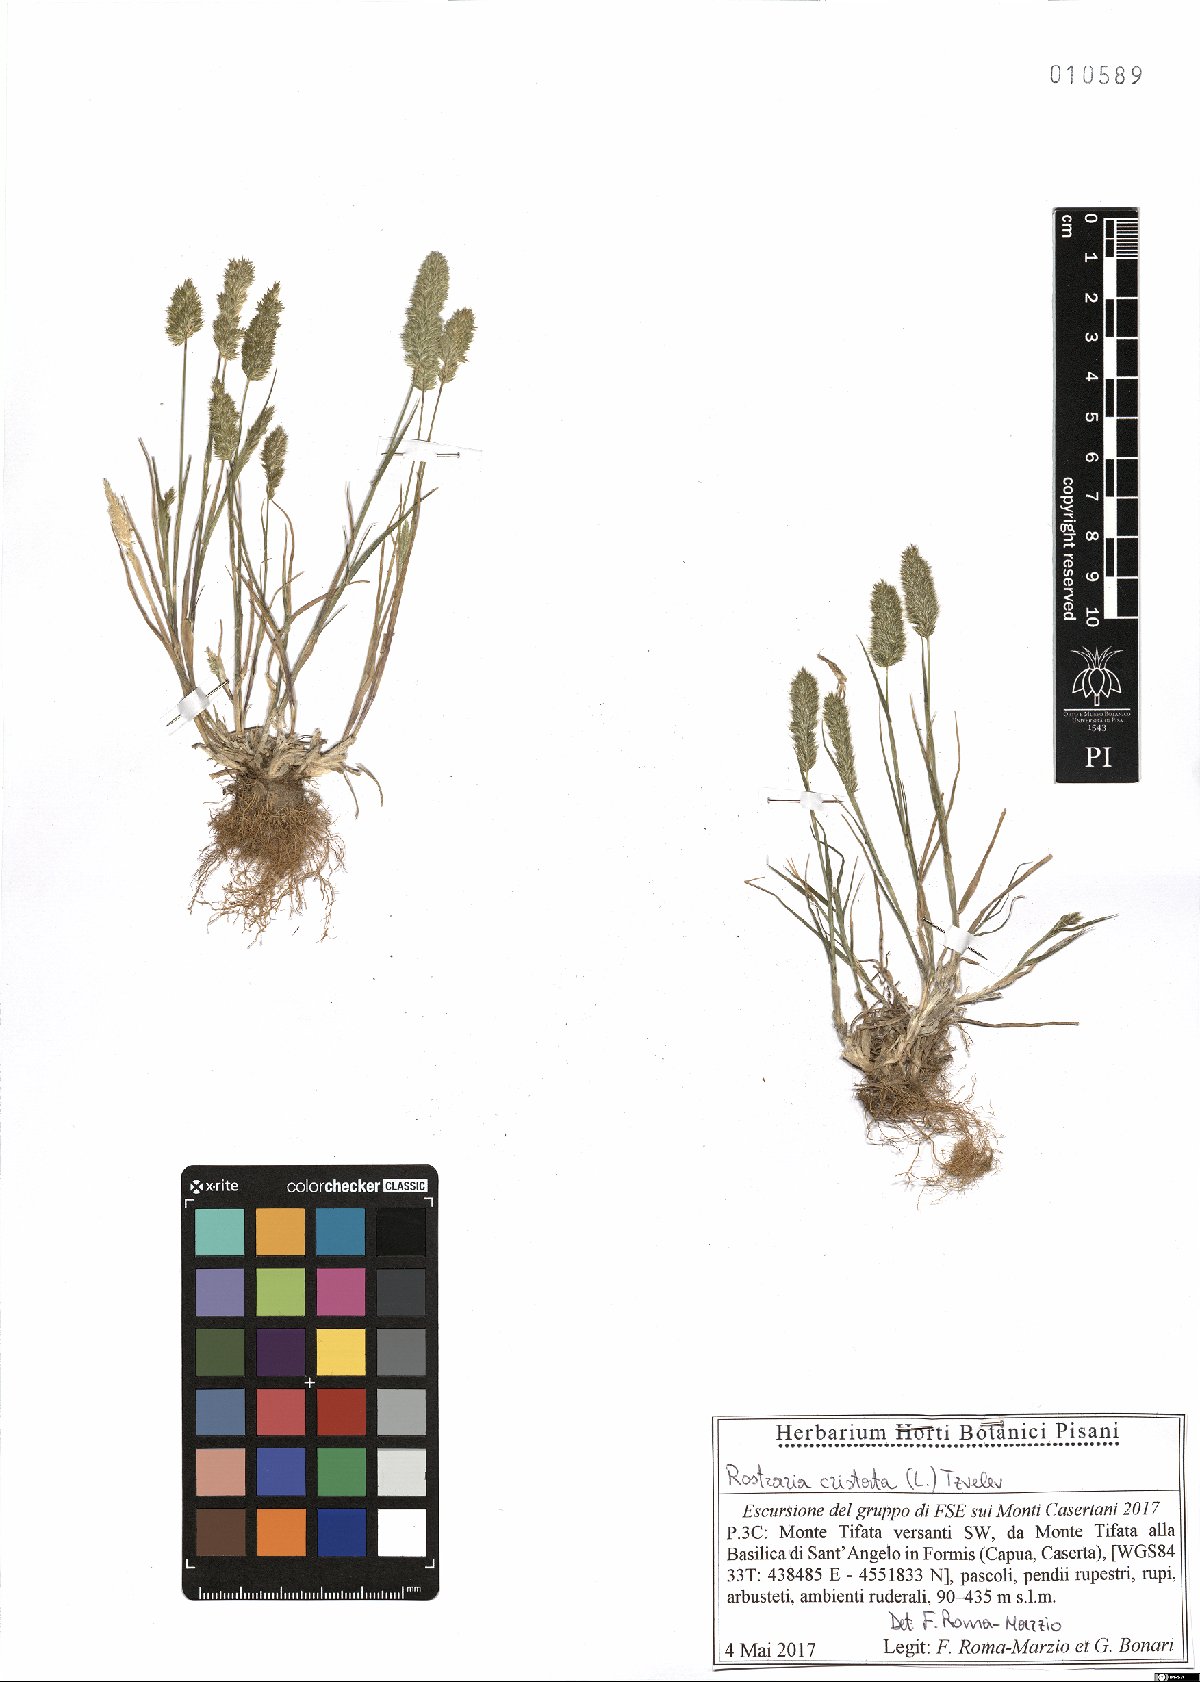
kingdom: Plantae
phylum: Tracheophyta
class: Liliopsida
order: Poales
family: Poaceae
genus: Rostraria
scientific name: Rostraria cristata
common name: Mediterranean hair-grass
